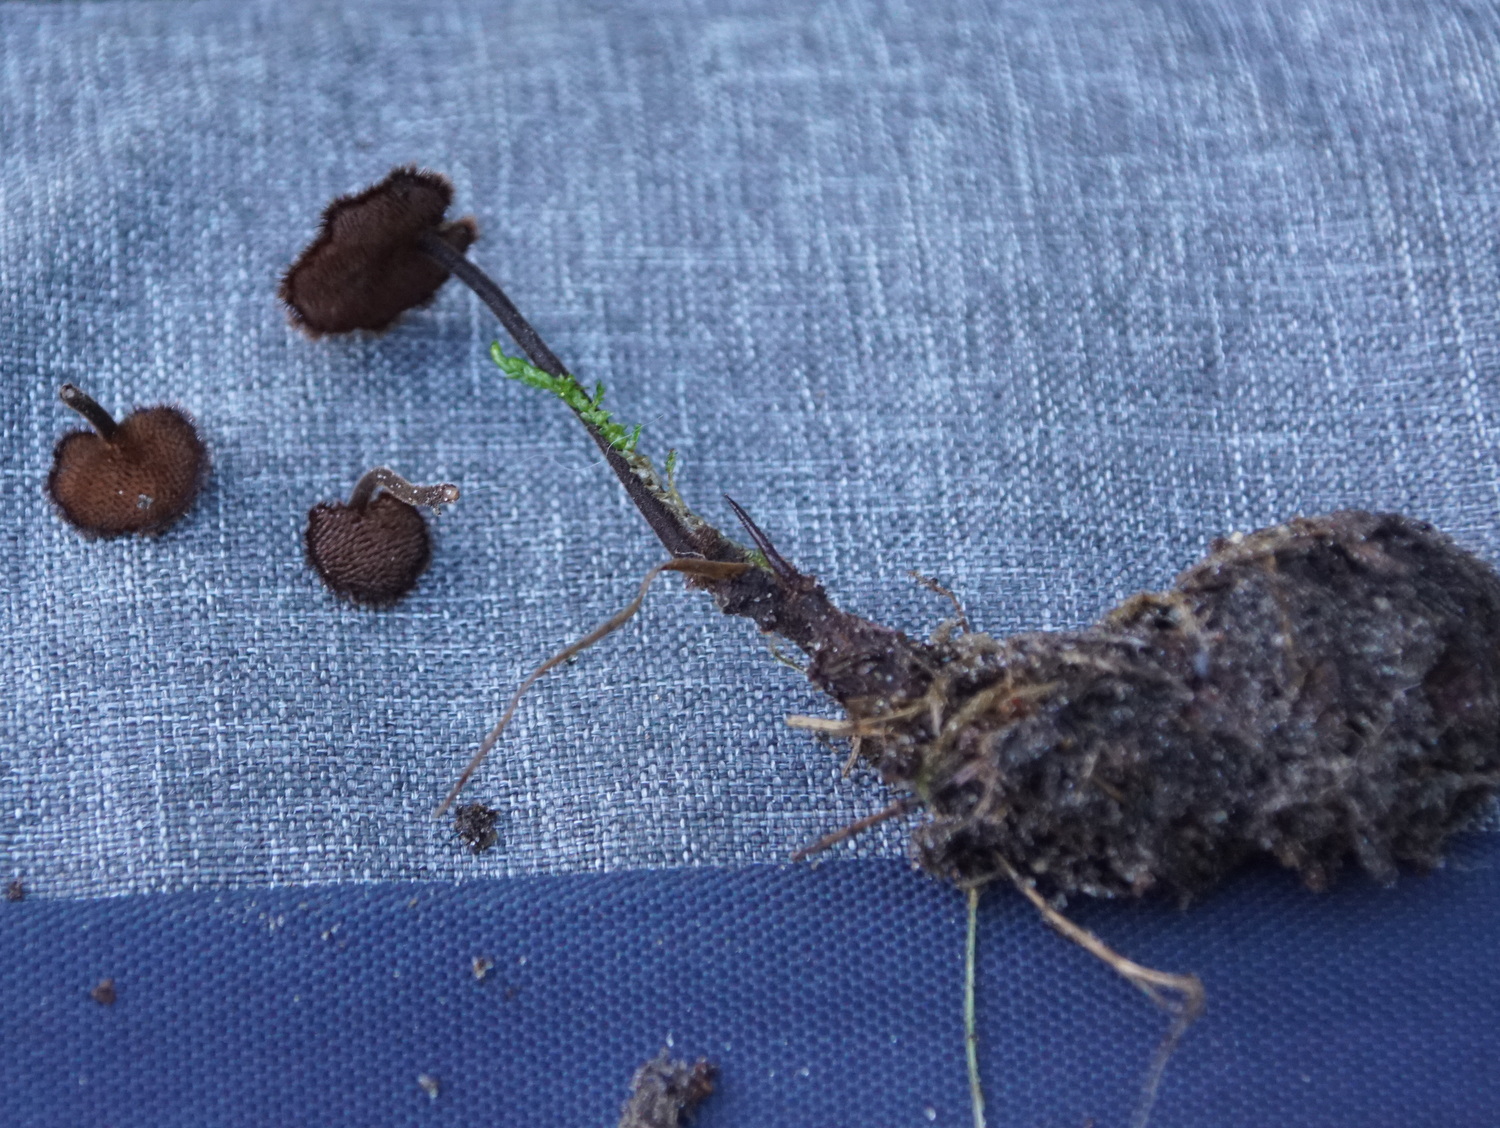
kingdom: Fungi
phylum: Basidiomycota
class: Agaricomycetes
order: Russulales
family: Auriscalpiaceae
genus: Auriscalpium
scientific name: Auriscalpium vulgare
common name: koglepigsvamp
